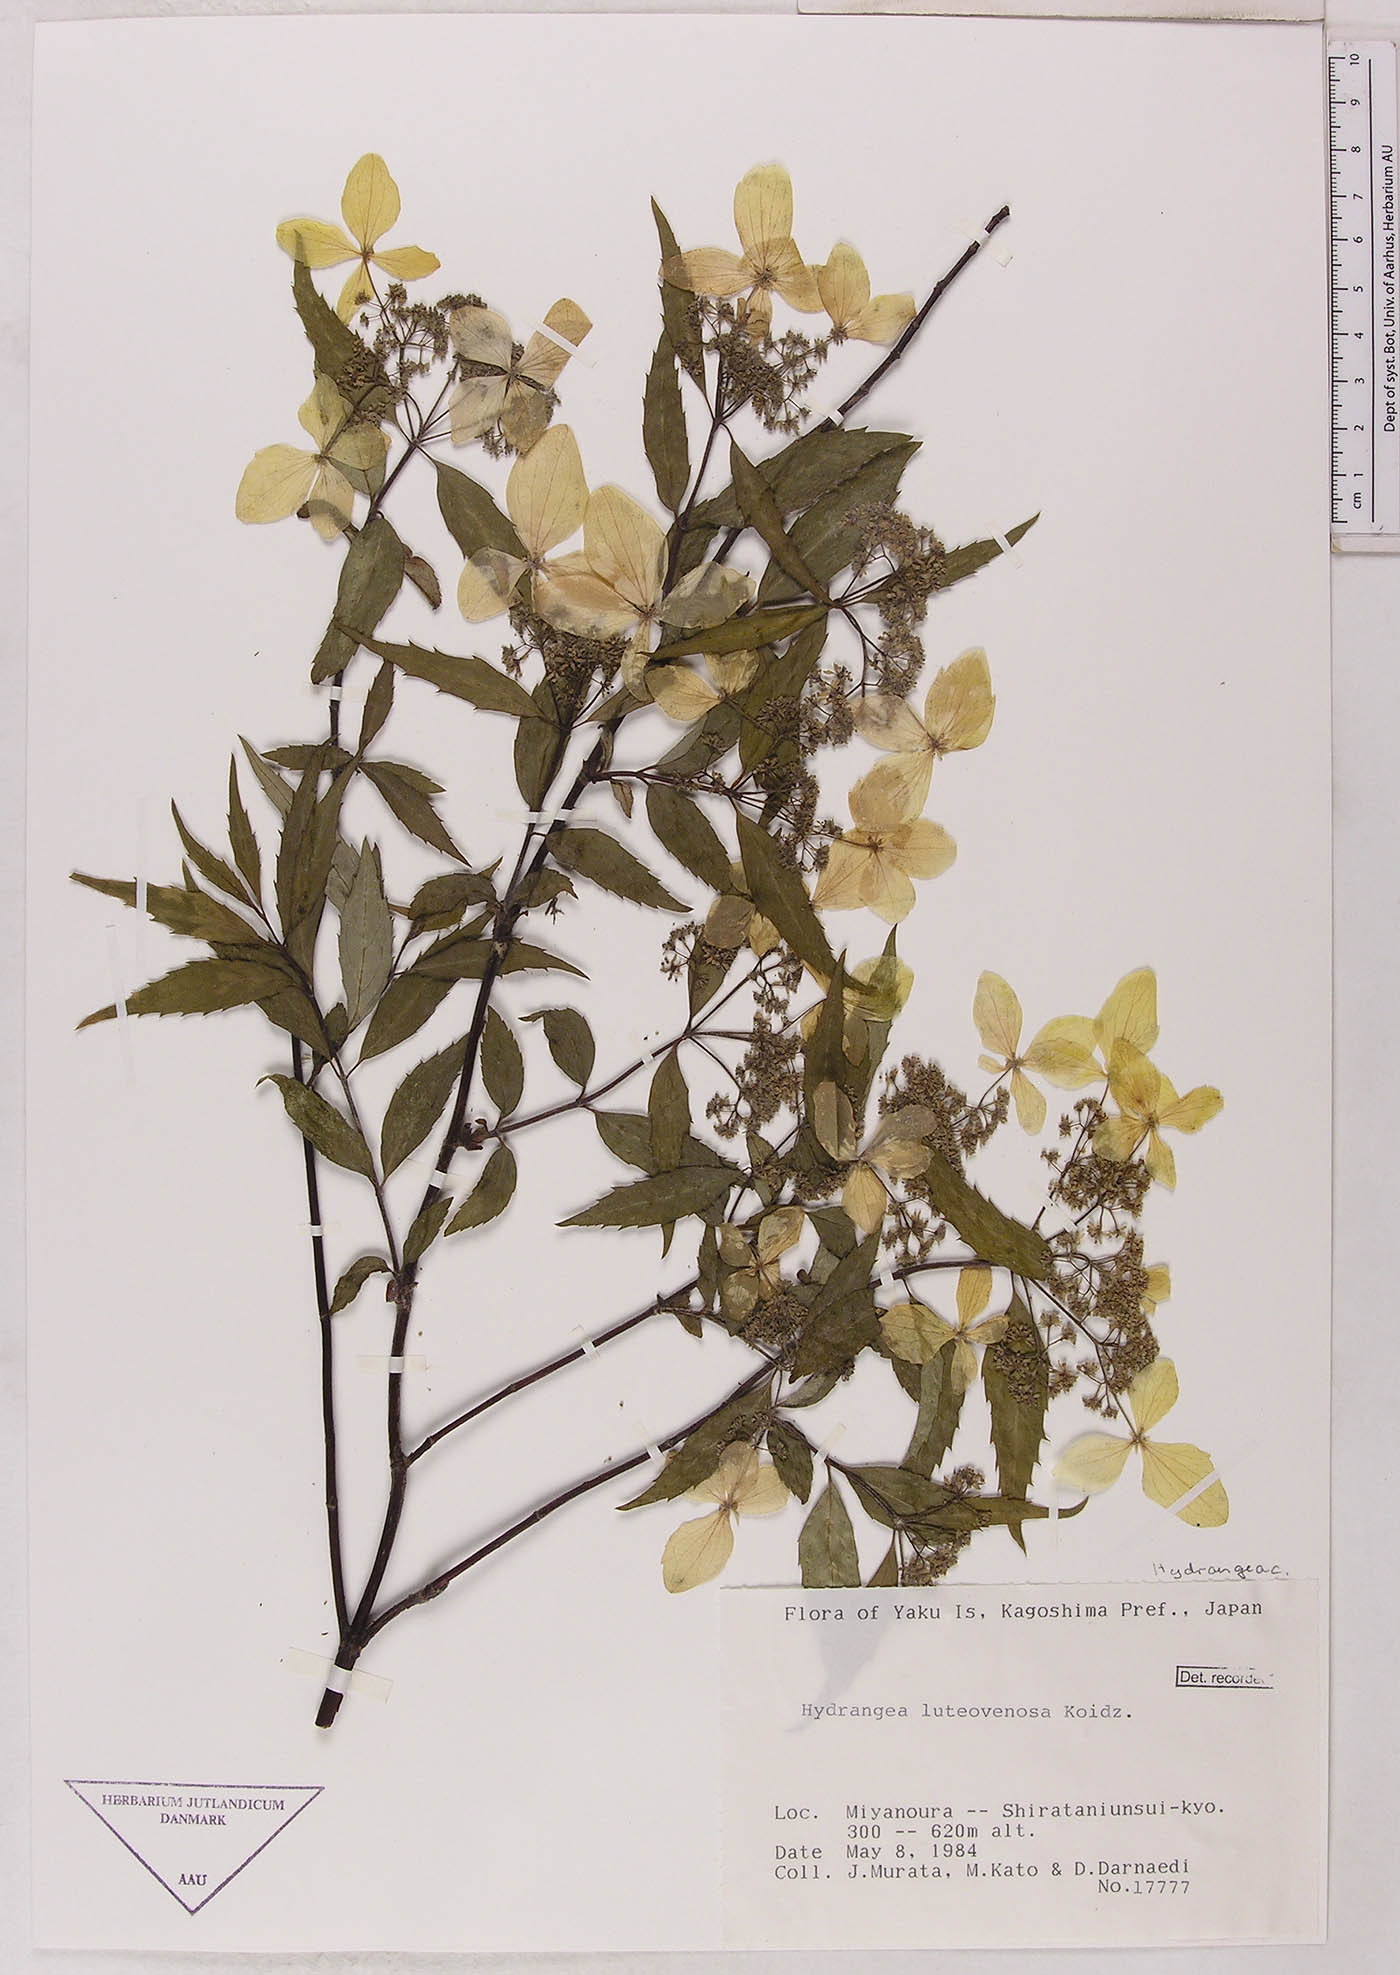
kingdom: Plantae
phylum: Tracheophyta
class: Magnoliopsida
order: Cornales
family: Hydrangeaceae
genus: Hydrangea
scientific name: Hydrangea luteovenosa
